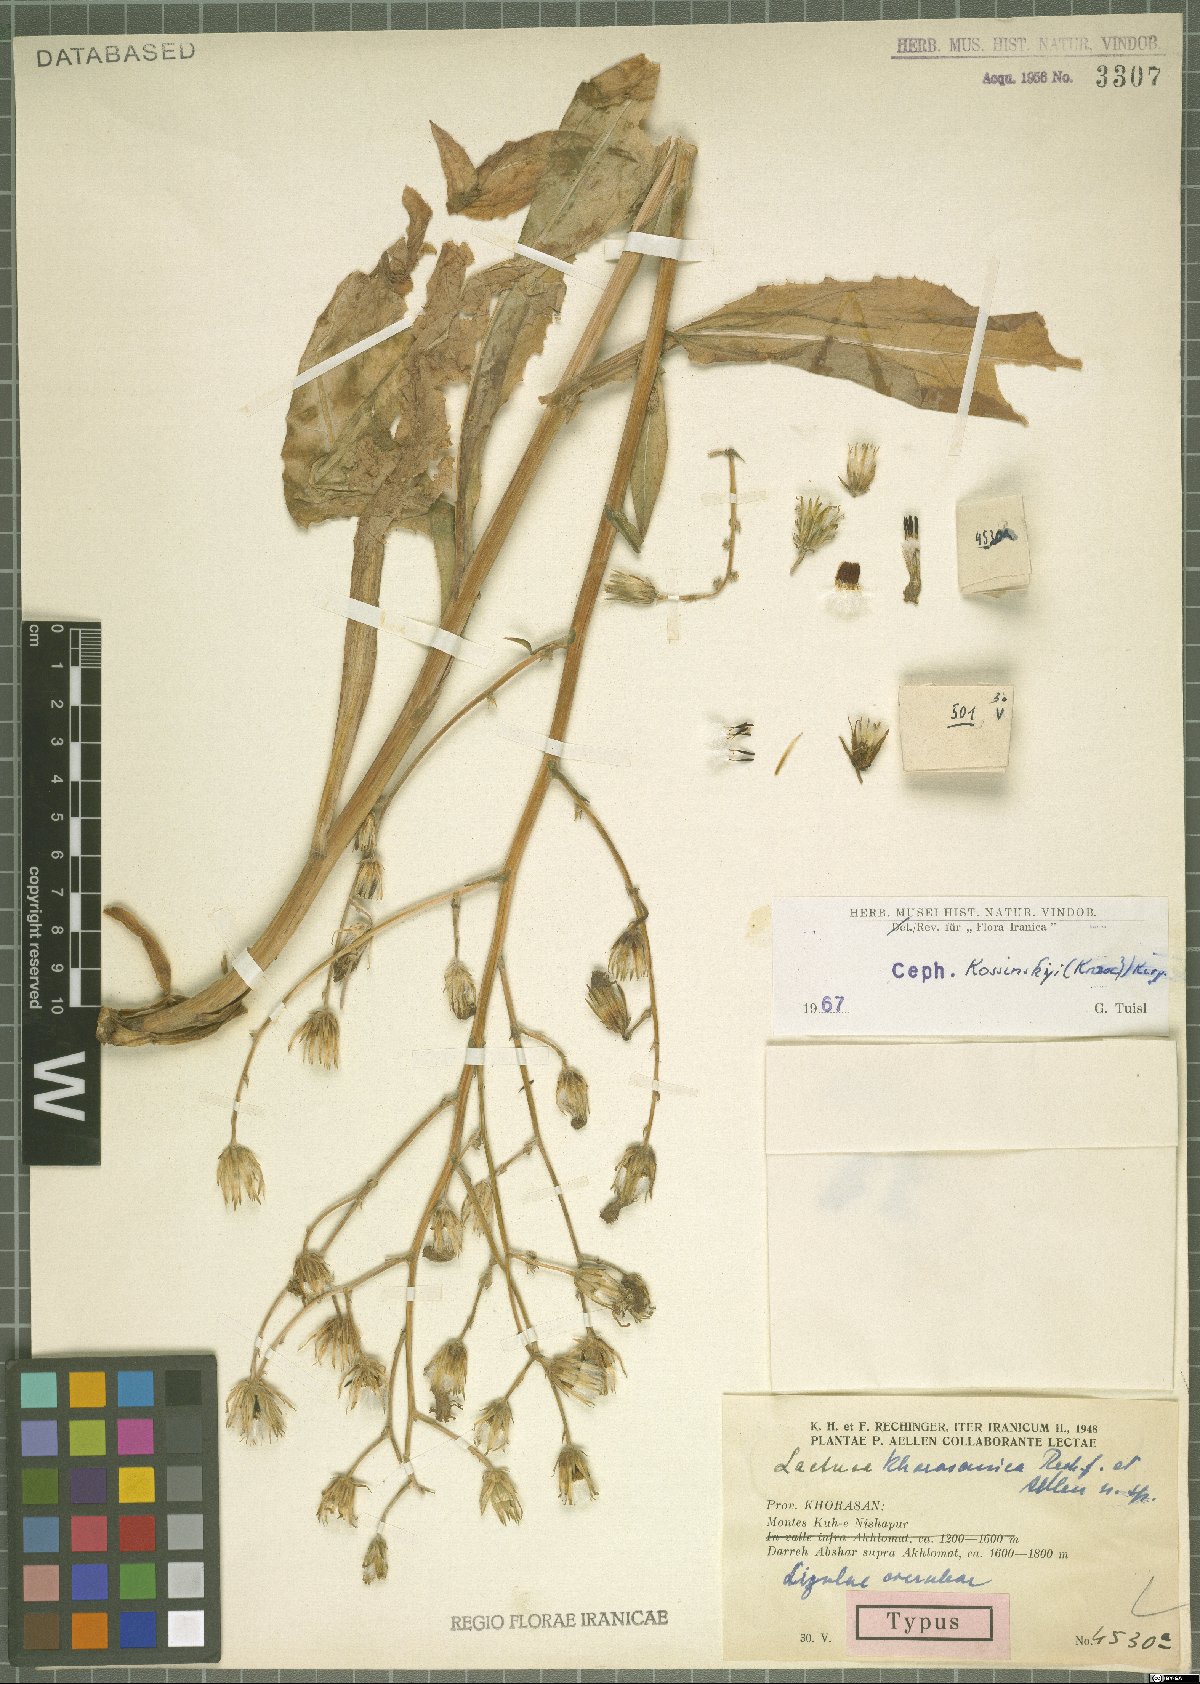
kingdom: Plantae
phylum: Tracheophyta
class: Magnoliopsida
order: Asterales
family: Asteraceae
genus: Lactuca
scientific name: Lactuca kossinskyi
